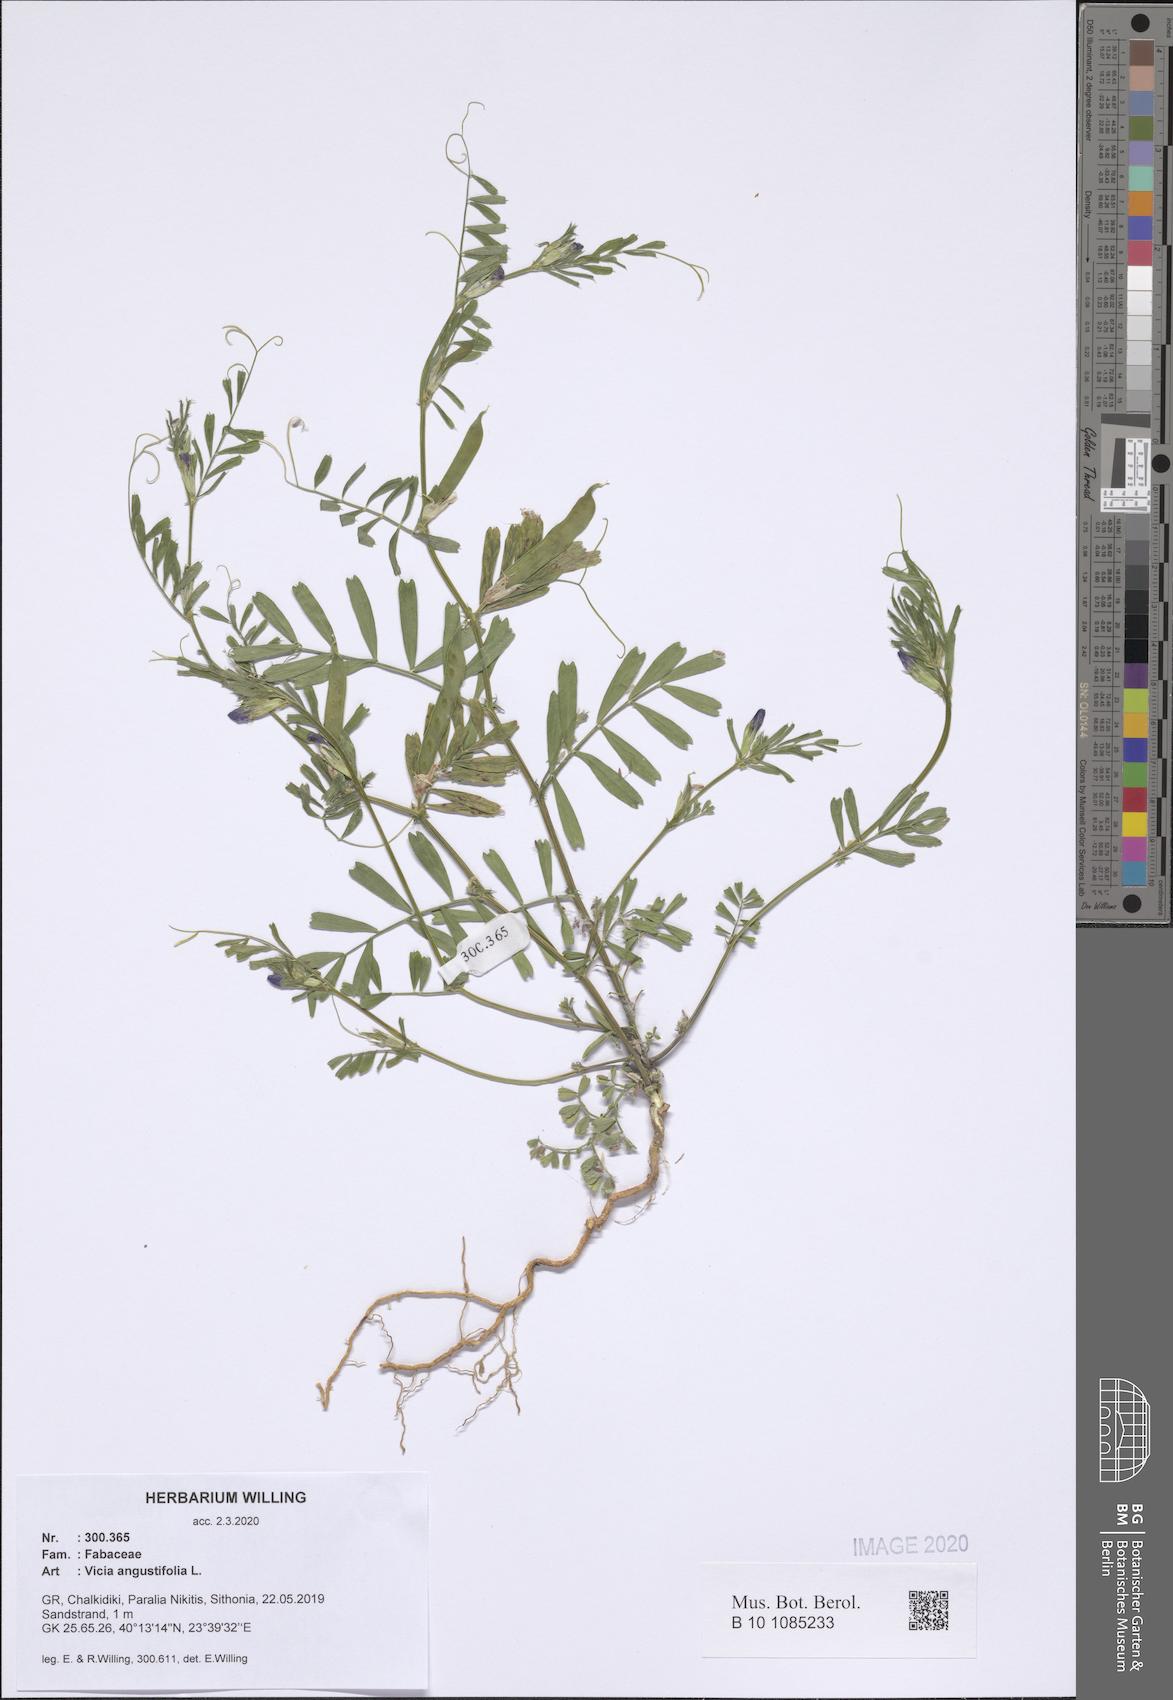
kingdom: Plantae
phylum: Tracheophyta
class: Magnoliopsida
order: Fabales
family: Fabaceae
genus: Vicia
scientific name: Vicia sativa
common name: Garden vetch
